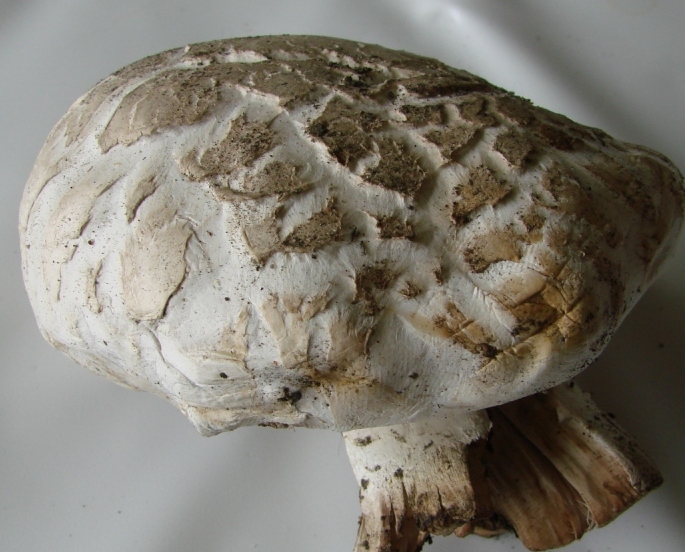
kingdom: Fungi
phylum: Basidiomycota
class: Agaricomycetes
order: Agaricales
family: Agaricaceae
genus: Agaricus
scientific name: Agaricus bernardii
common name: strandengs-champignon
